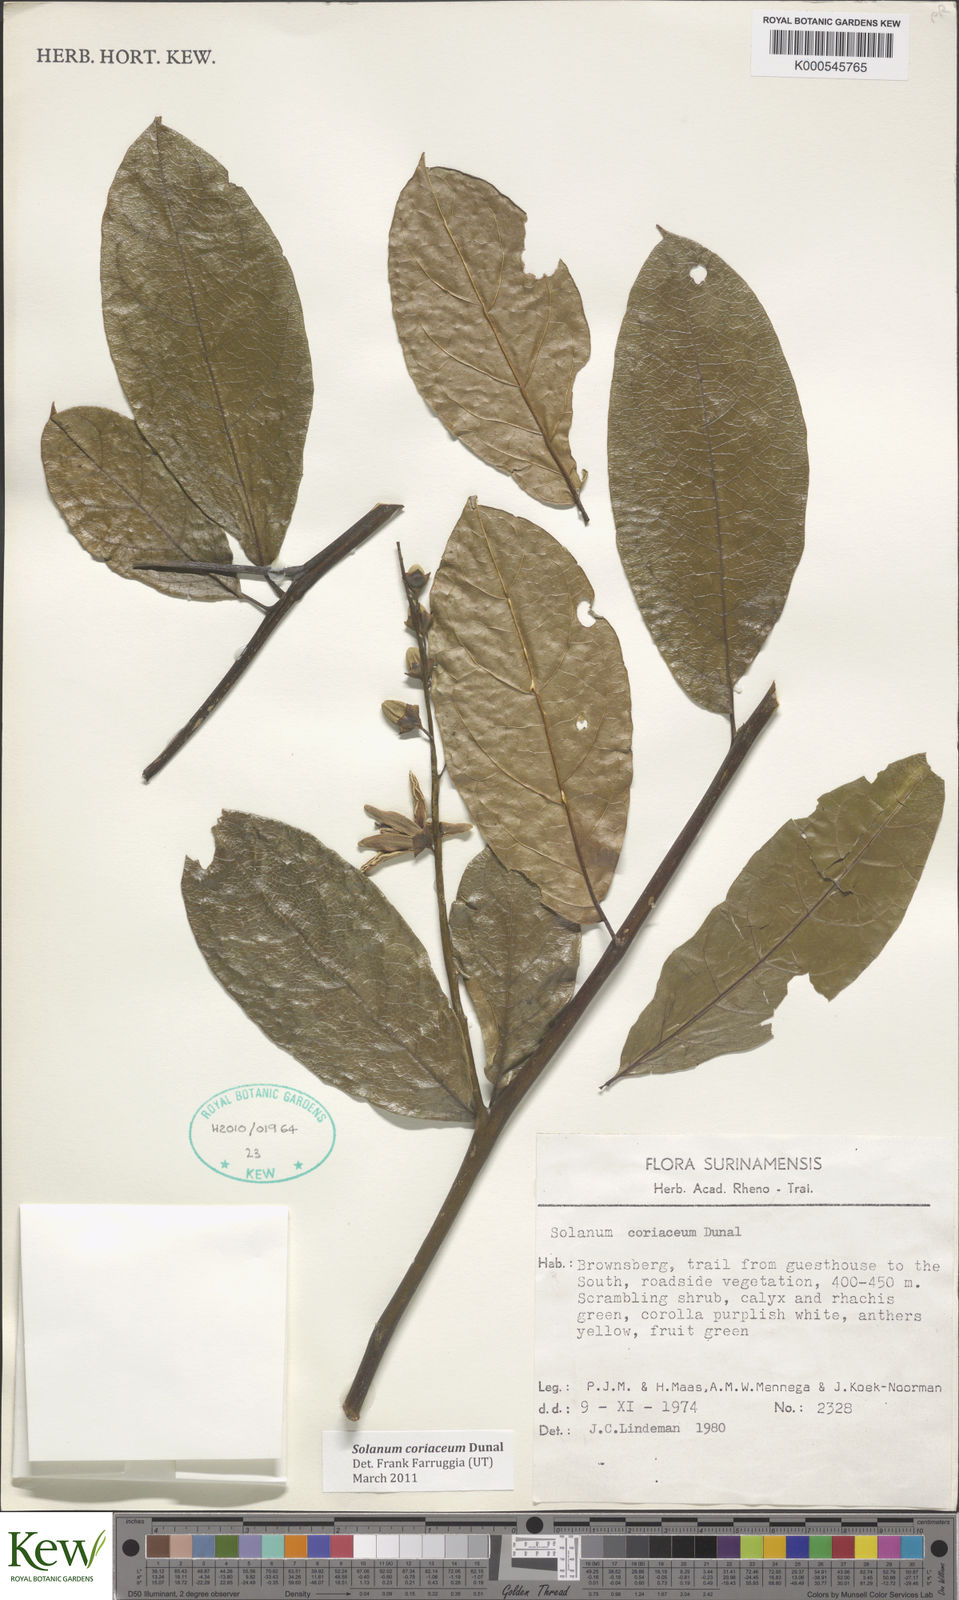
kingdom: Plantae
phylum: Tracheophyta
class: Magnoliopsida
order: Solanales
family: Solanaceae
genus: Solanum
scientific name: Solanum coriaceum
